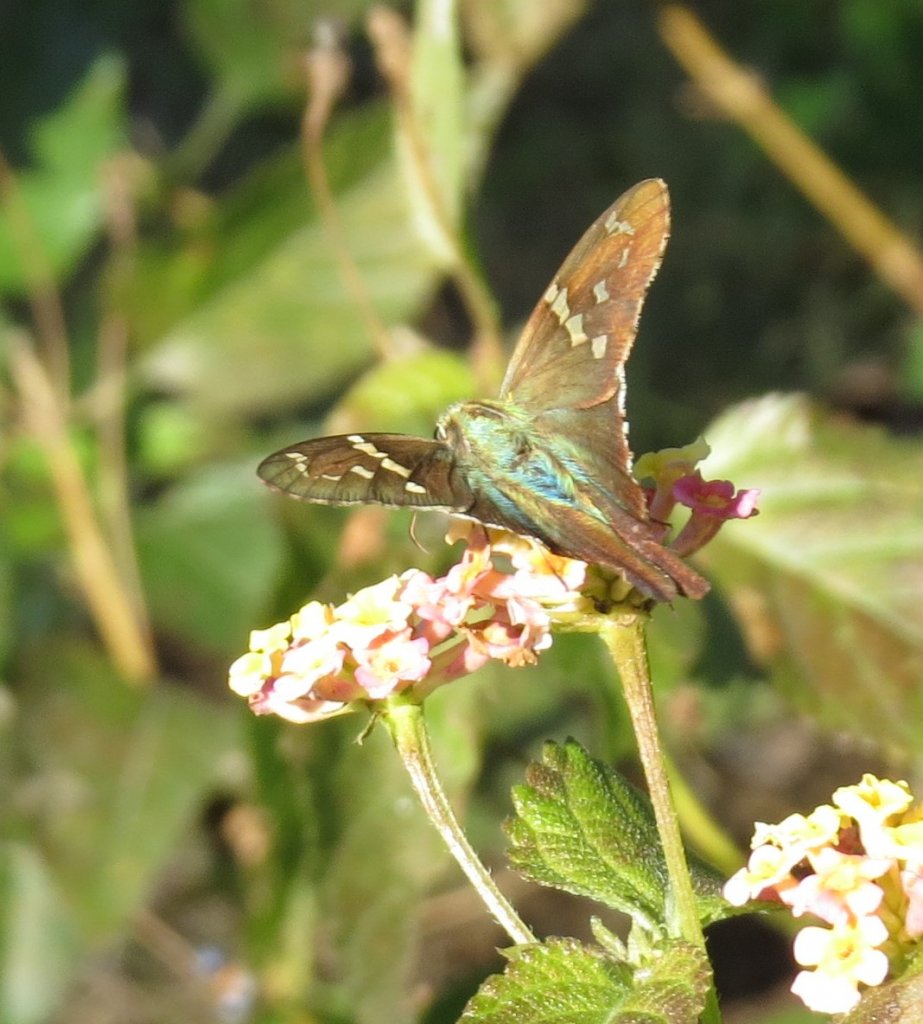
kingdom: Animalia
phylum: Arthropoda
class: Insecta
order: Lepidoptera
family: Hesperiidae
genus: Urbanus
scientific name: Urbanus proteus
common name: Long-tailed Skipper
